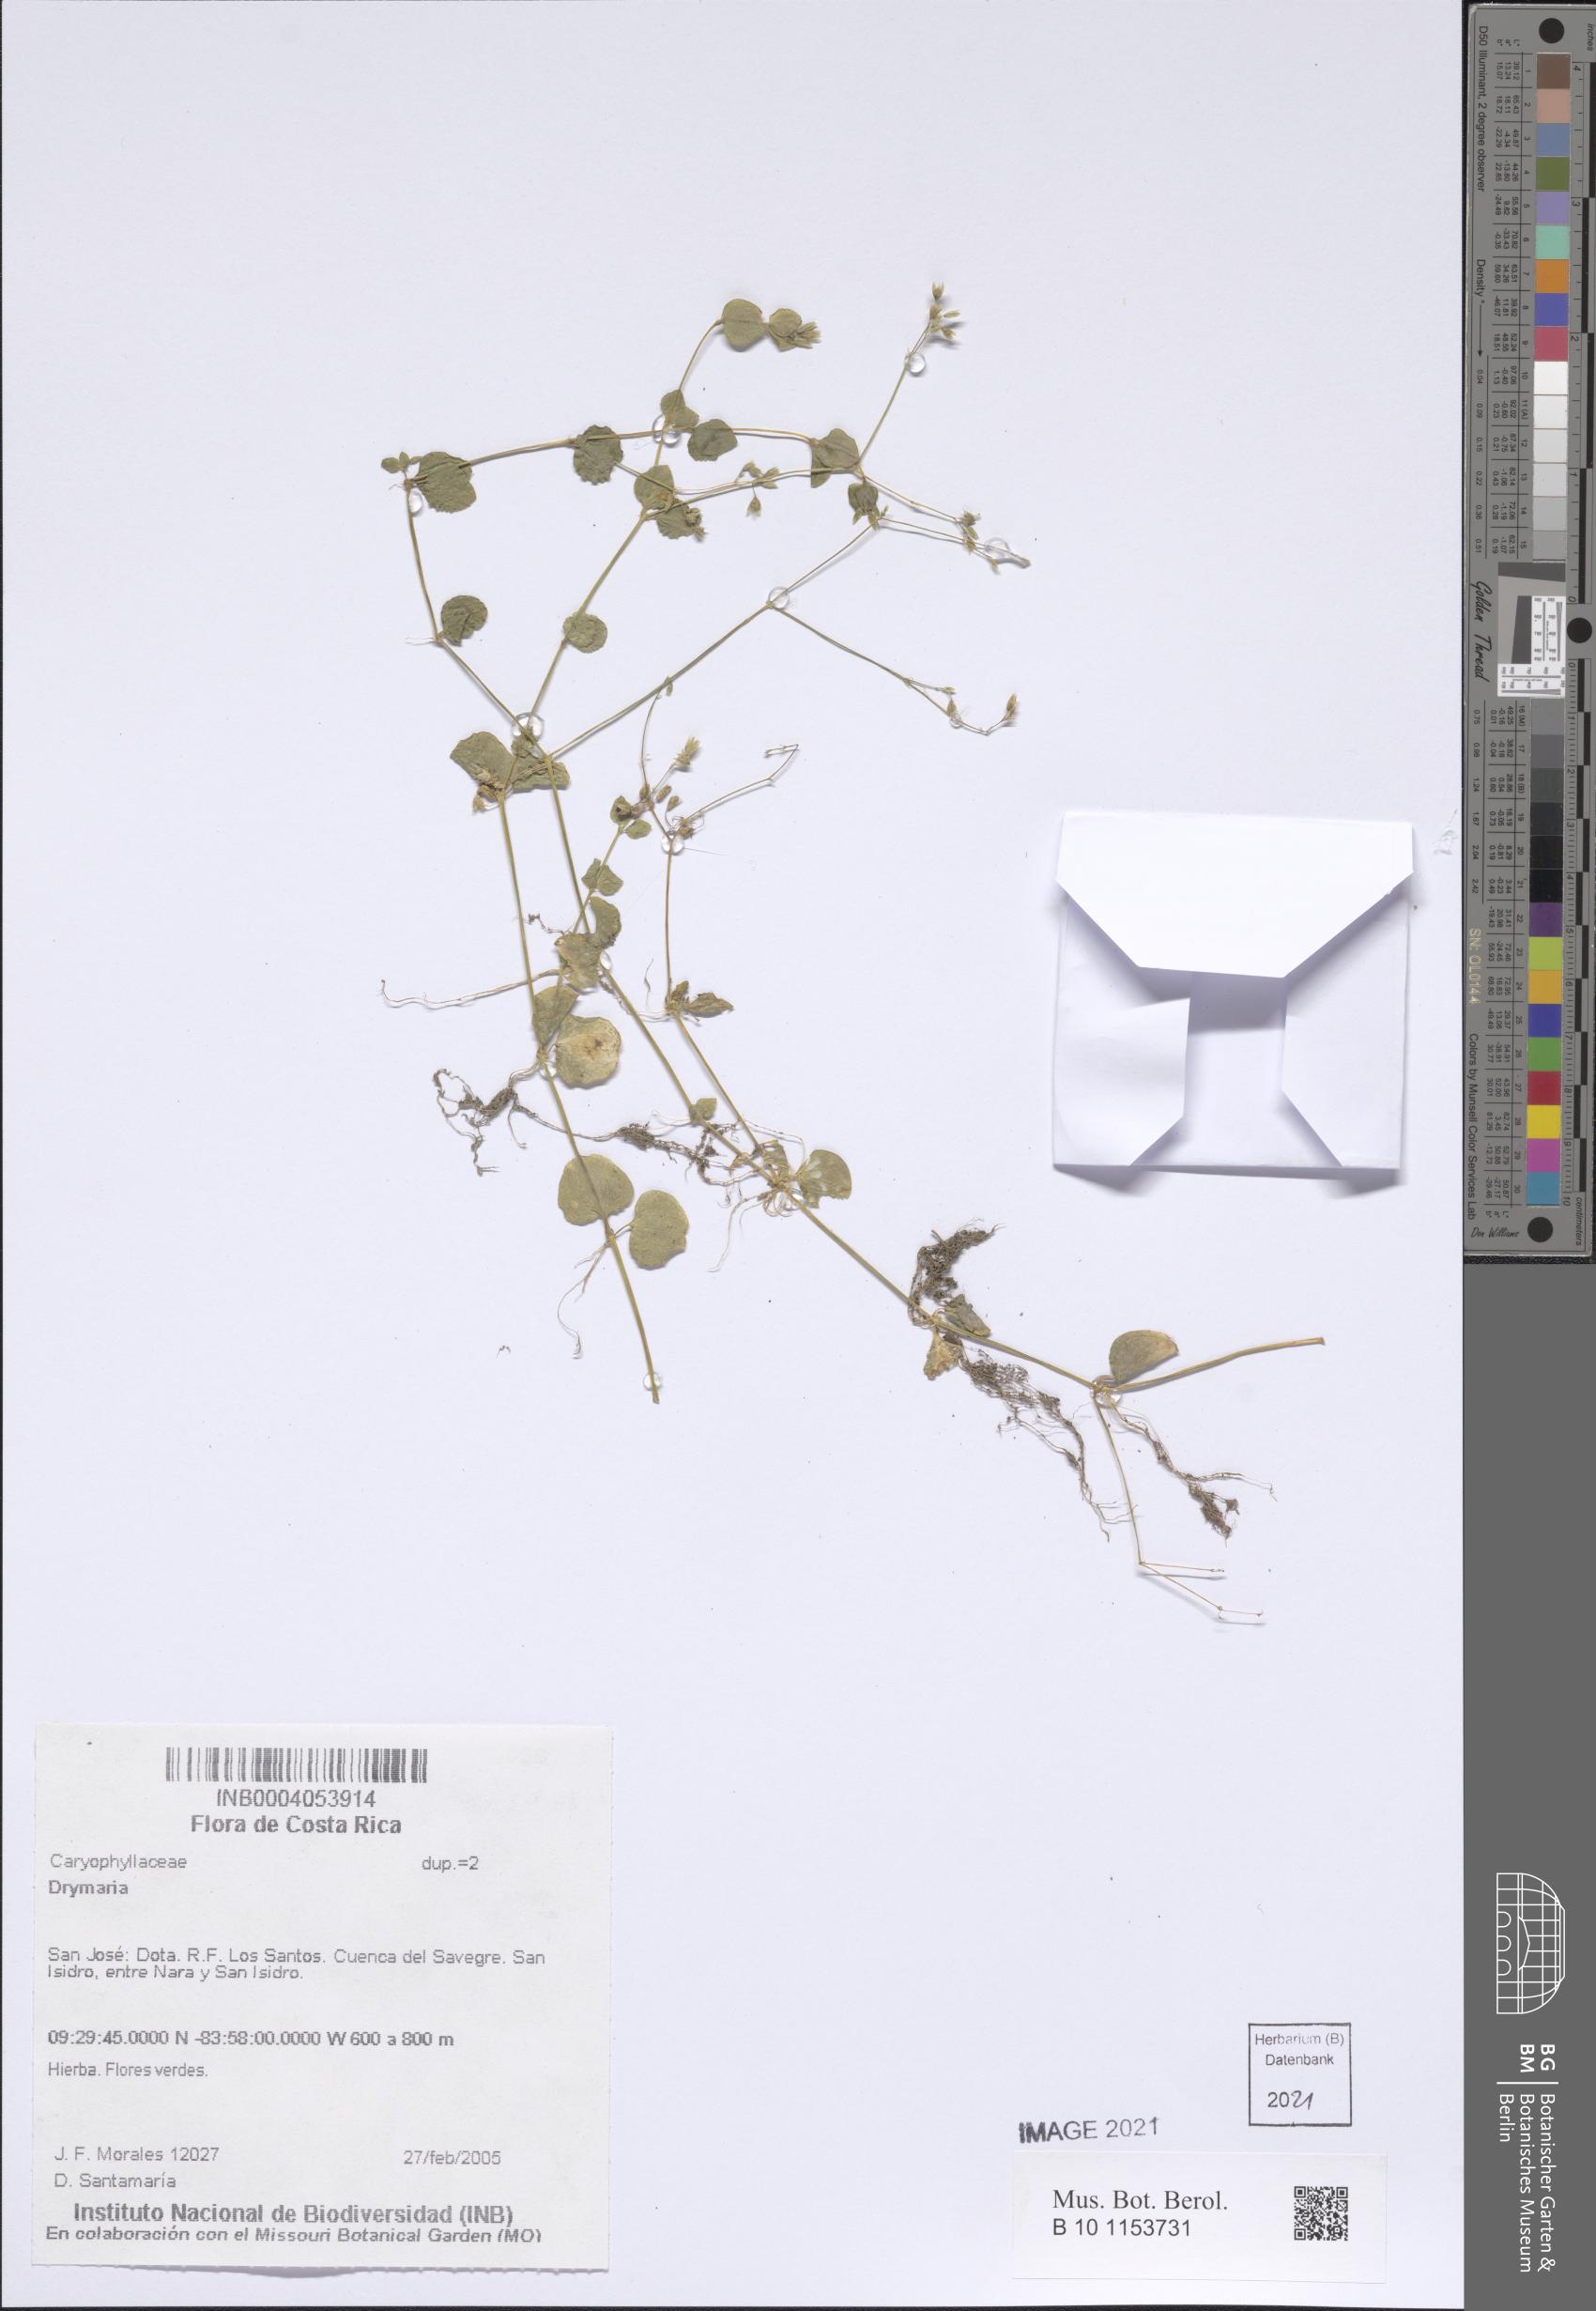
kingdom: Plantae
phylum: Tracheophyta
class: Magnoliopsida
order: Caryophyllales
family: Caryophyllaceae
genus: Drymaria
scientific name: Drymaria cordata
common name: Whitesnow
